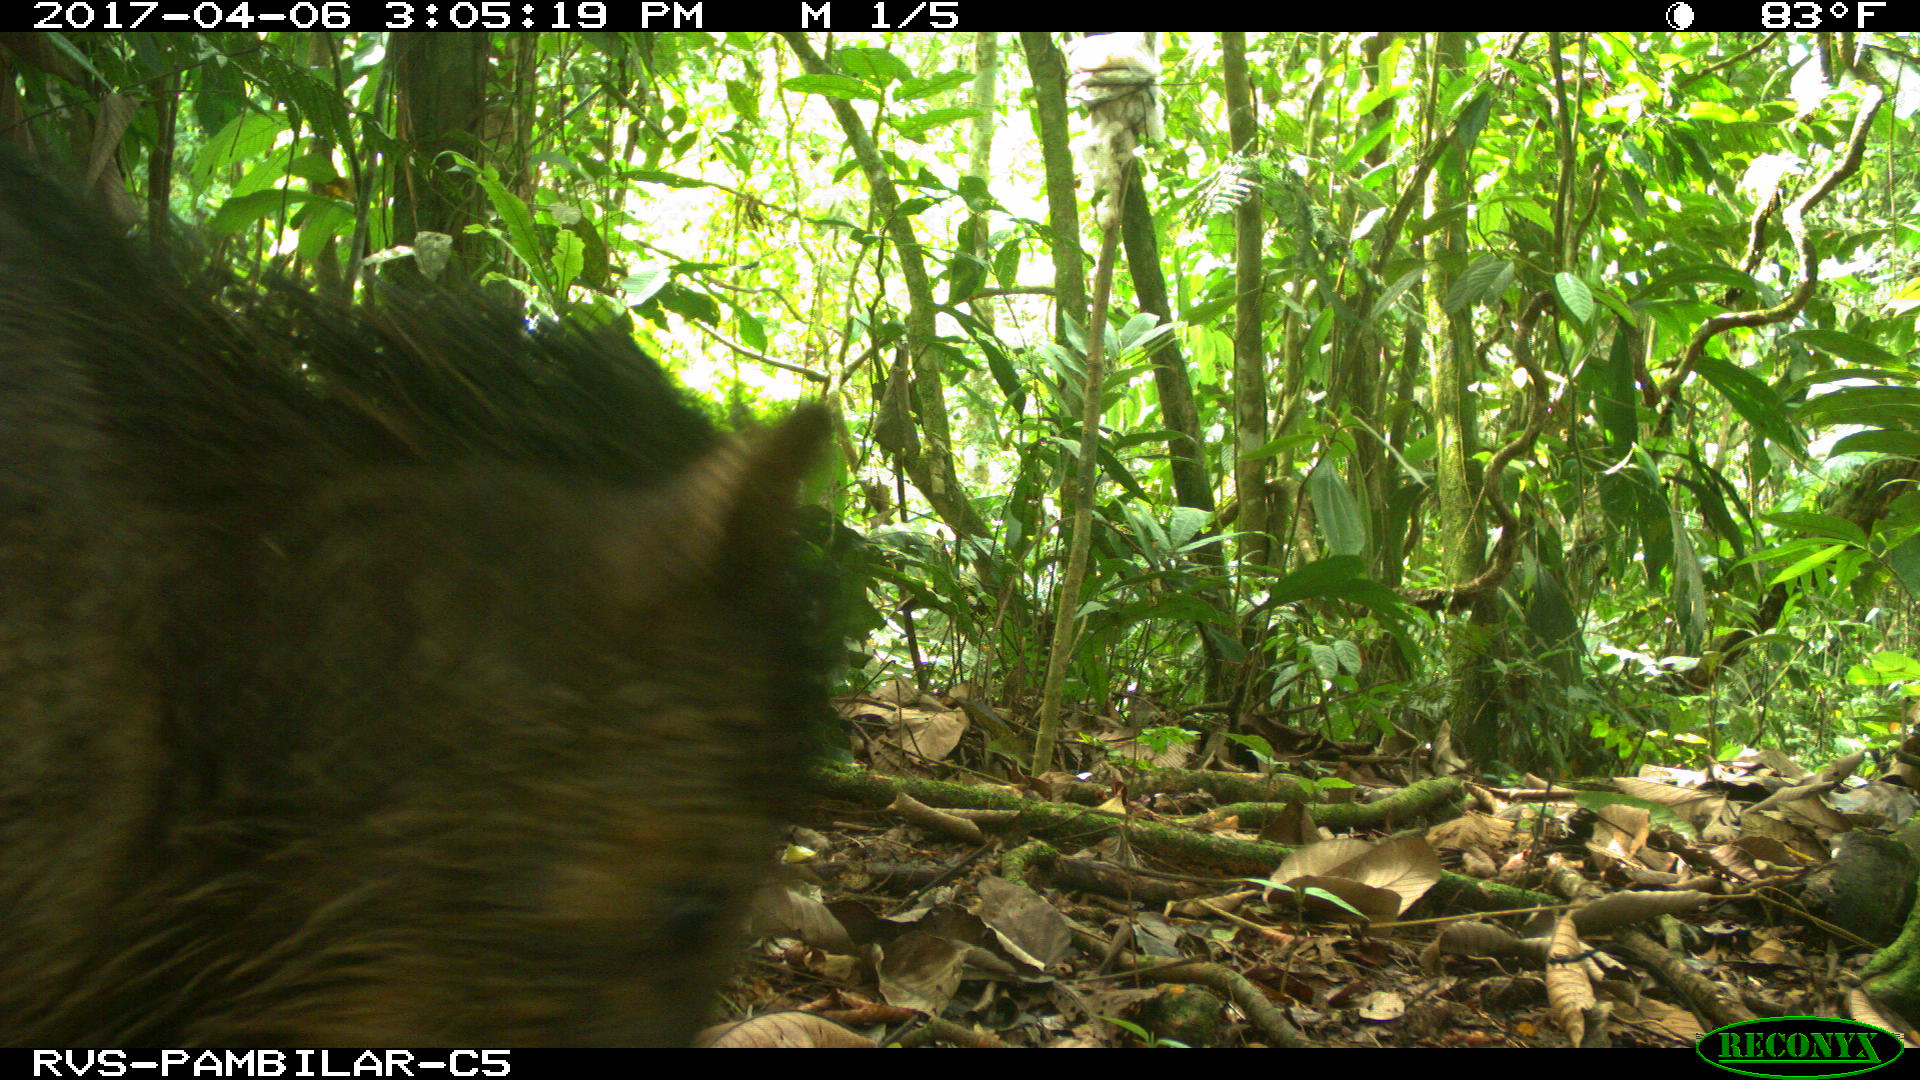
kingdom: Animalia
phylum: Chordata
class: Mammalia
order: Artiodactyla
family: Tayassuidae
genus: Tayassu
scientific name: Tayassu pecari
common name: White-lipped peccary
